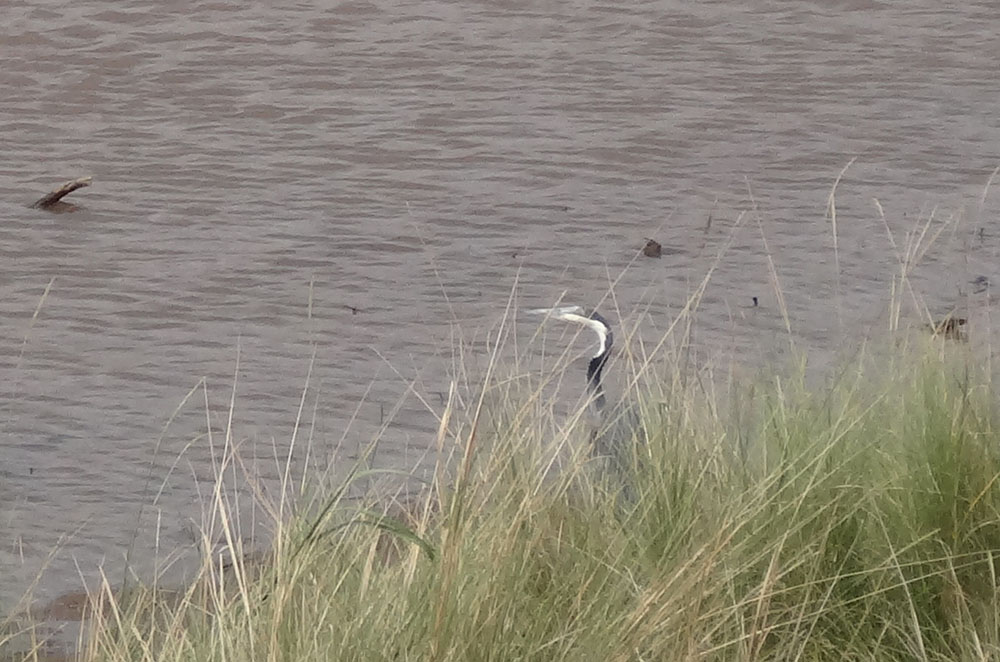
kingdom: Animalia
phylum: Chordata
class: Aves
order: Pelecaniformes
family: Ardeidae
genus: Ardea
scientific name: Ardea melanocephala
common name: Black-headed heron
